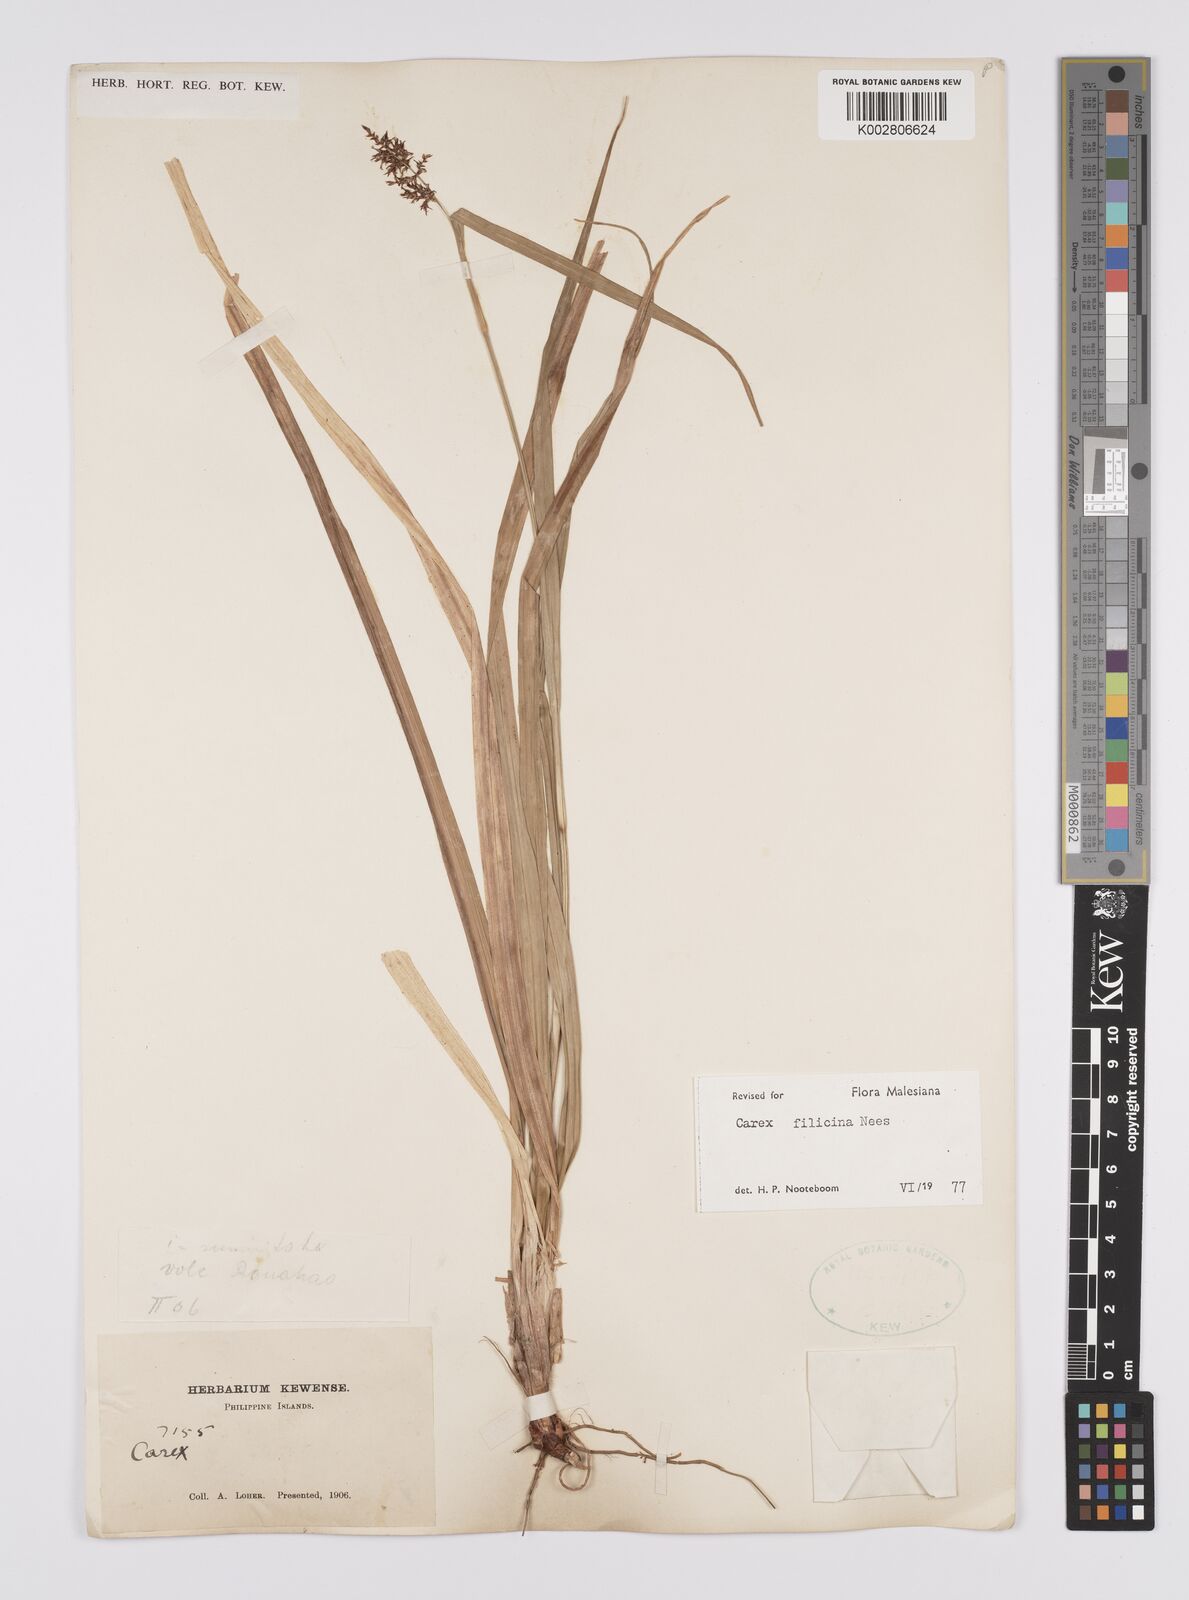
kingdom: Plantae
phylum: Tracheophyta
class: Liliopsida
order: Poales
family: Cyperaceae
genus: Carex
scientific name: Carex filicina
